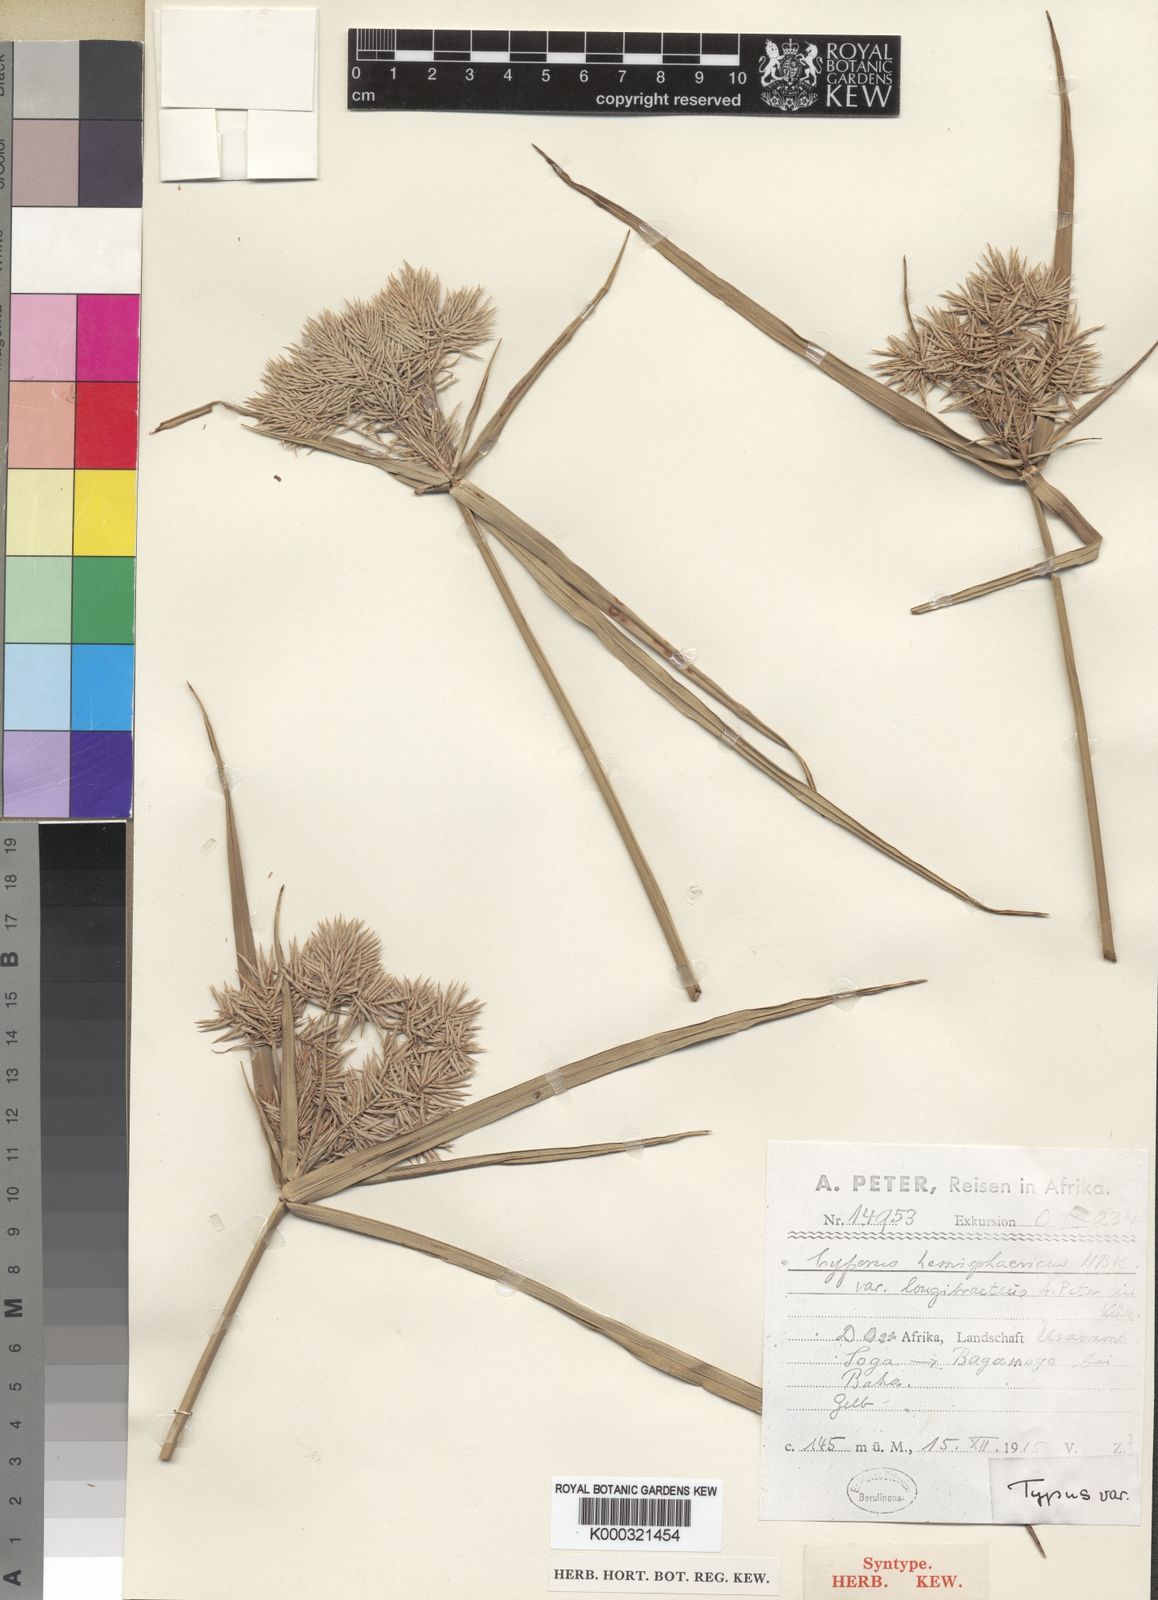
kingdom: Plantae
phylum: Tracheophyta
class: Liliopsida
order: Poales
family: Cyperaceae
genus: Cyperus
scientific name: Cyperus hemisphaericus
